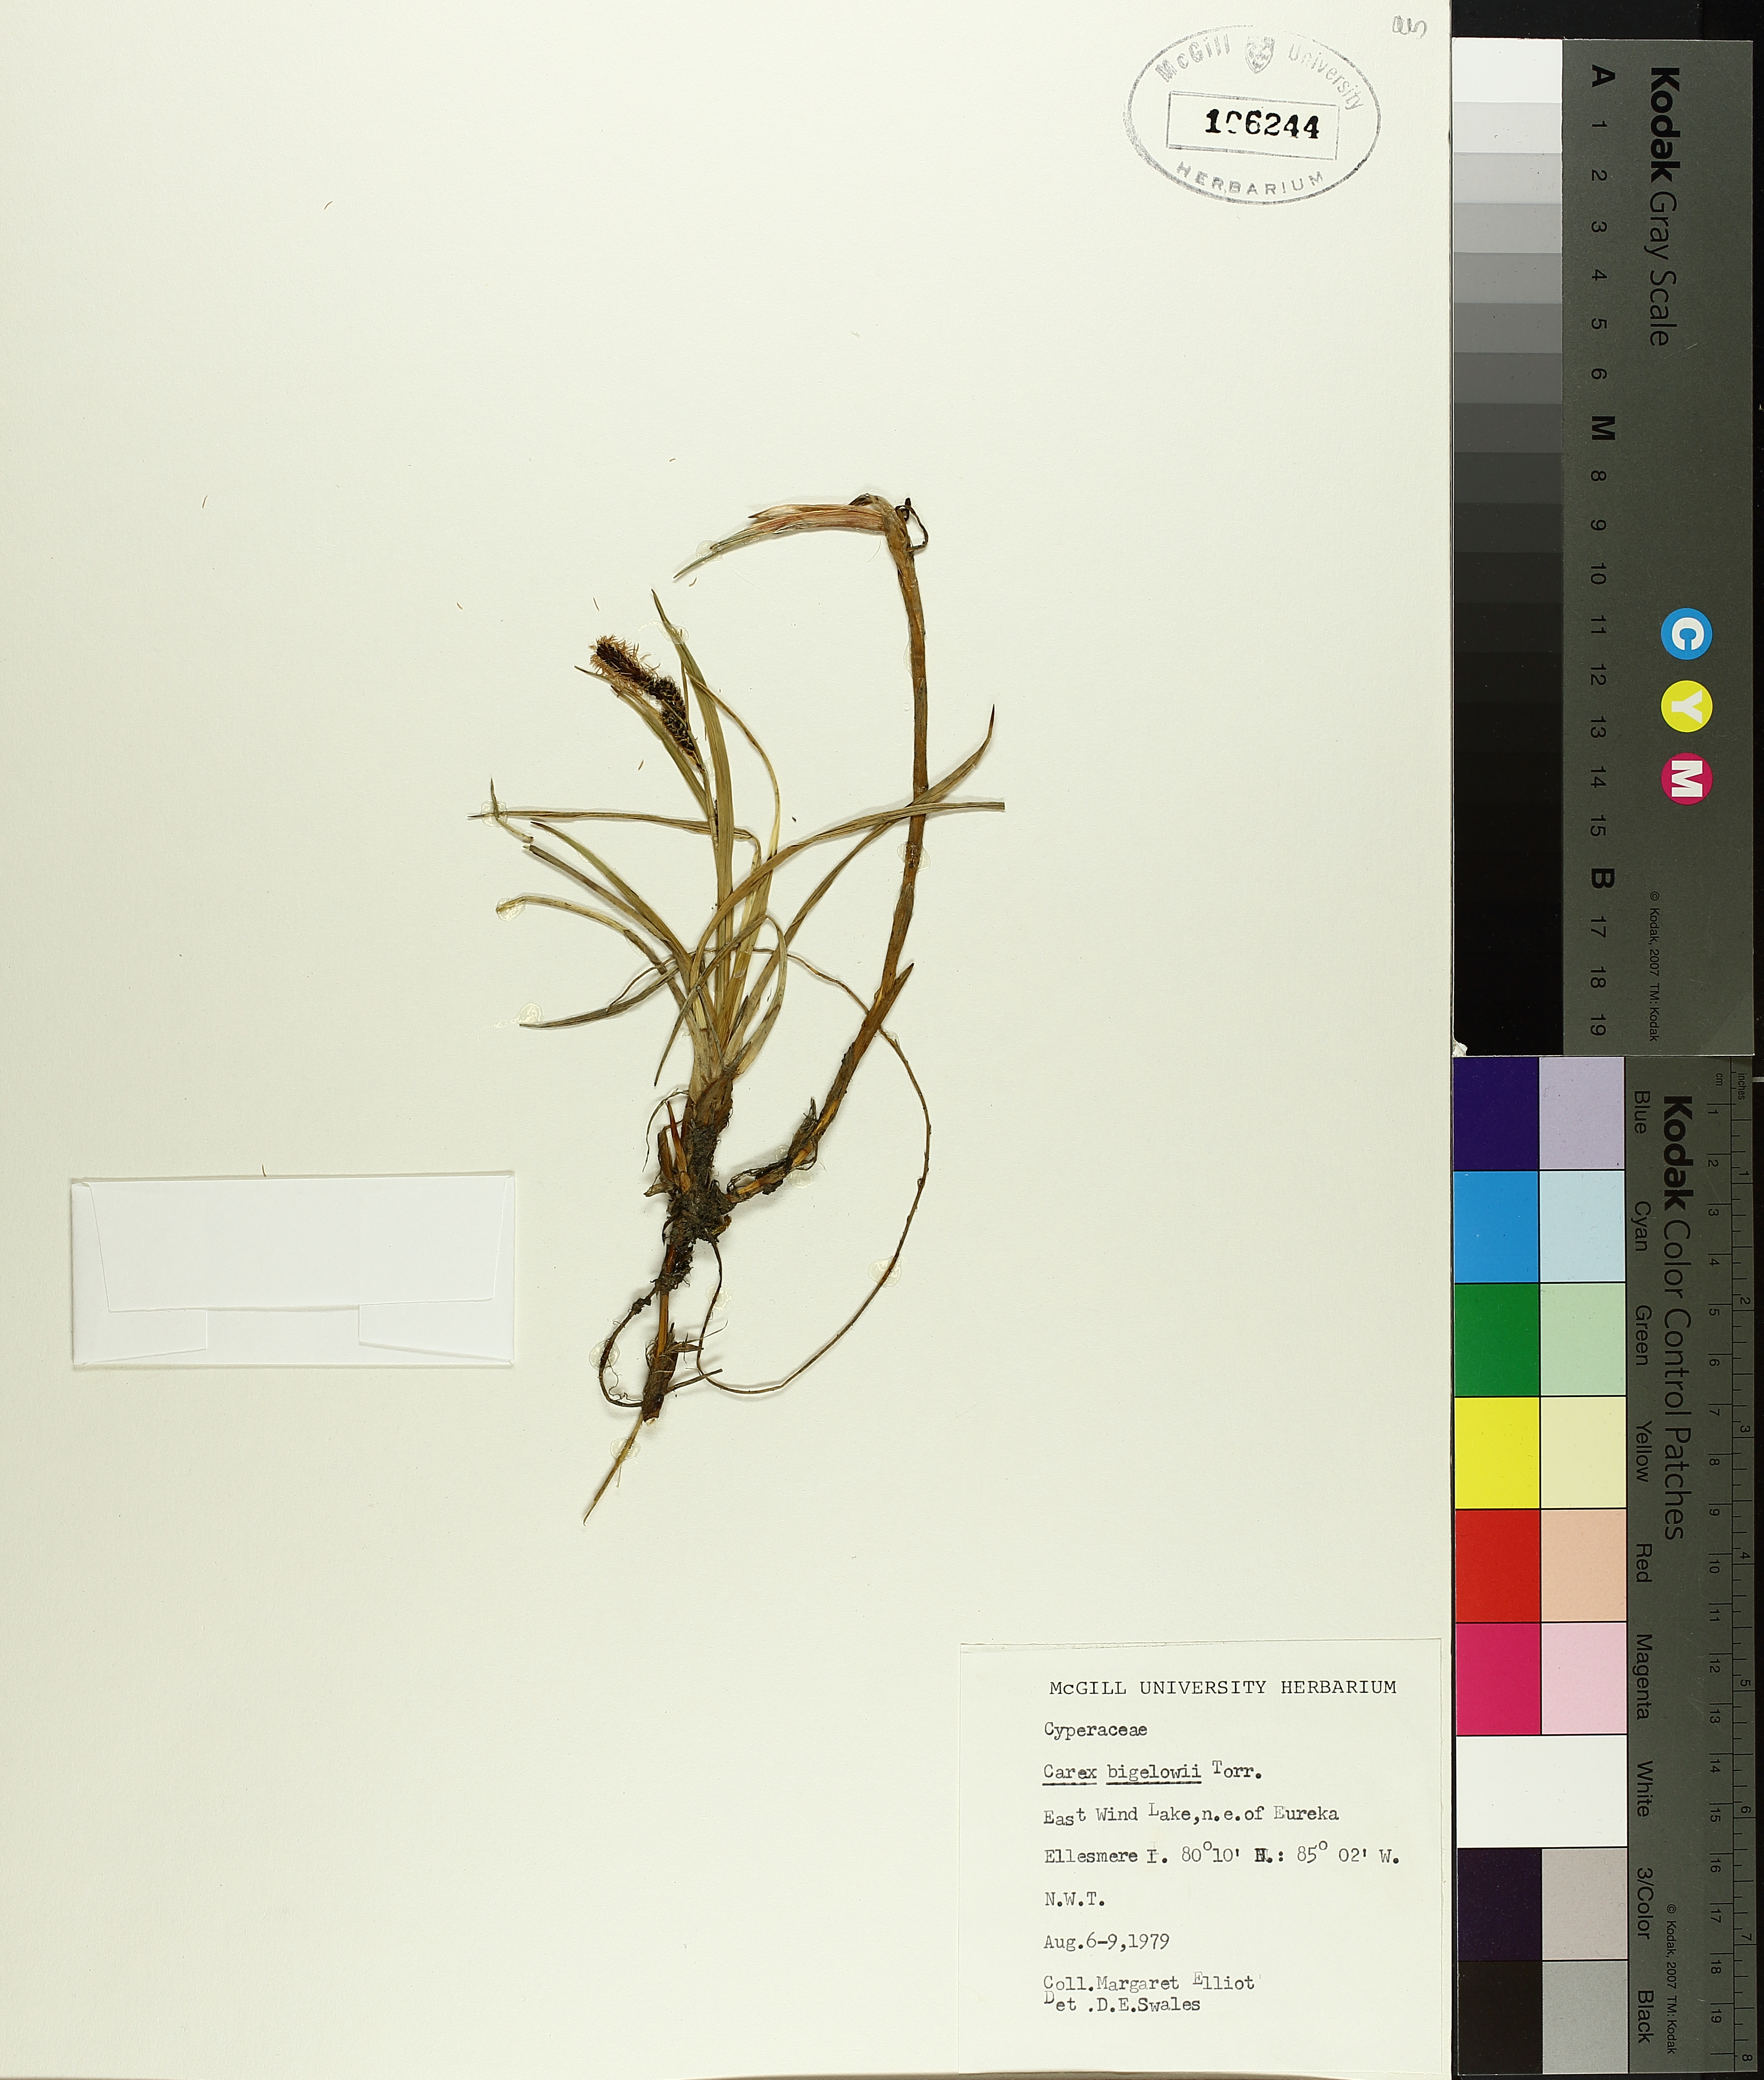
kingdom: Plantae
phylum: Tracheophyta
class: Liliopsida
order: Poales
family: Cyperaceae
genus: Carex
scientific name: Carex bigelowii
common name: Stiff sedge
